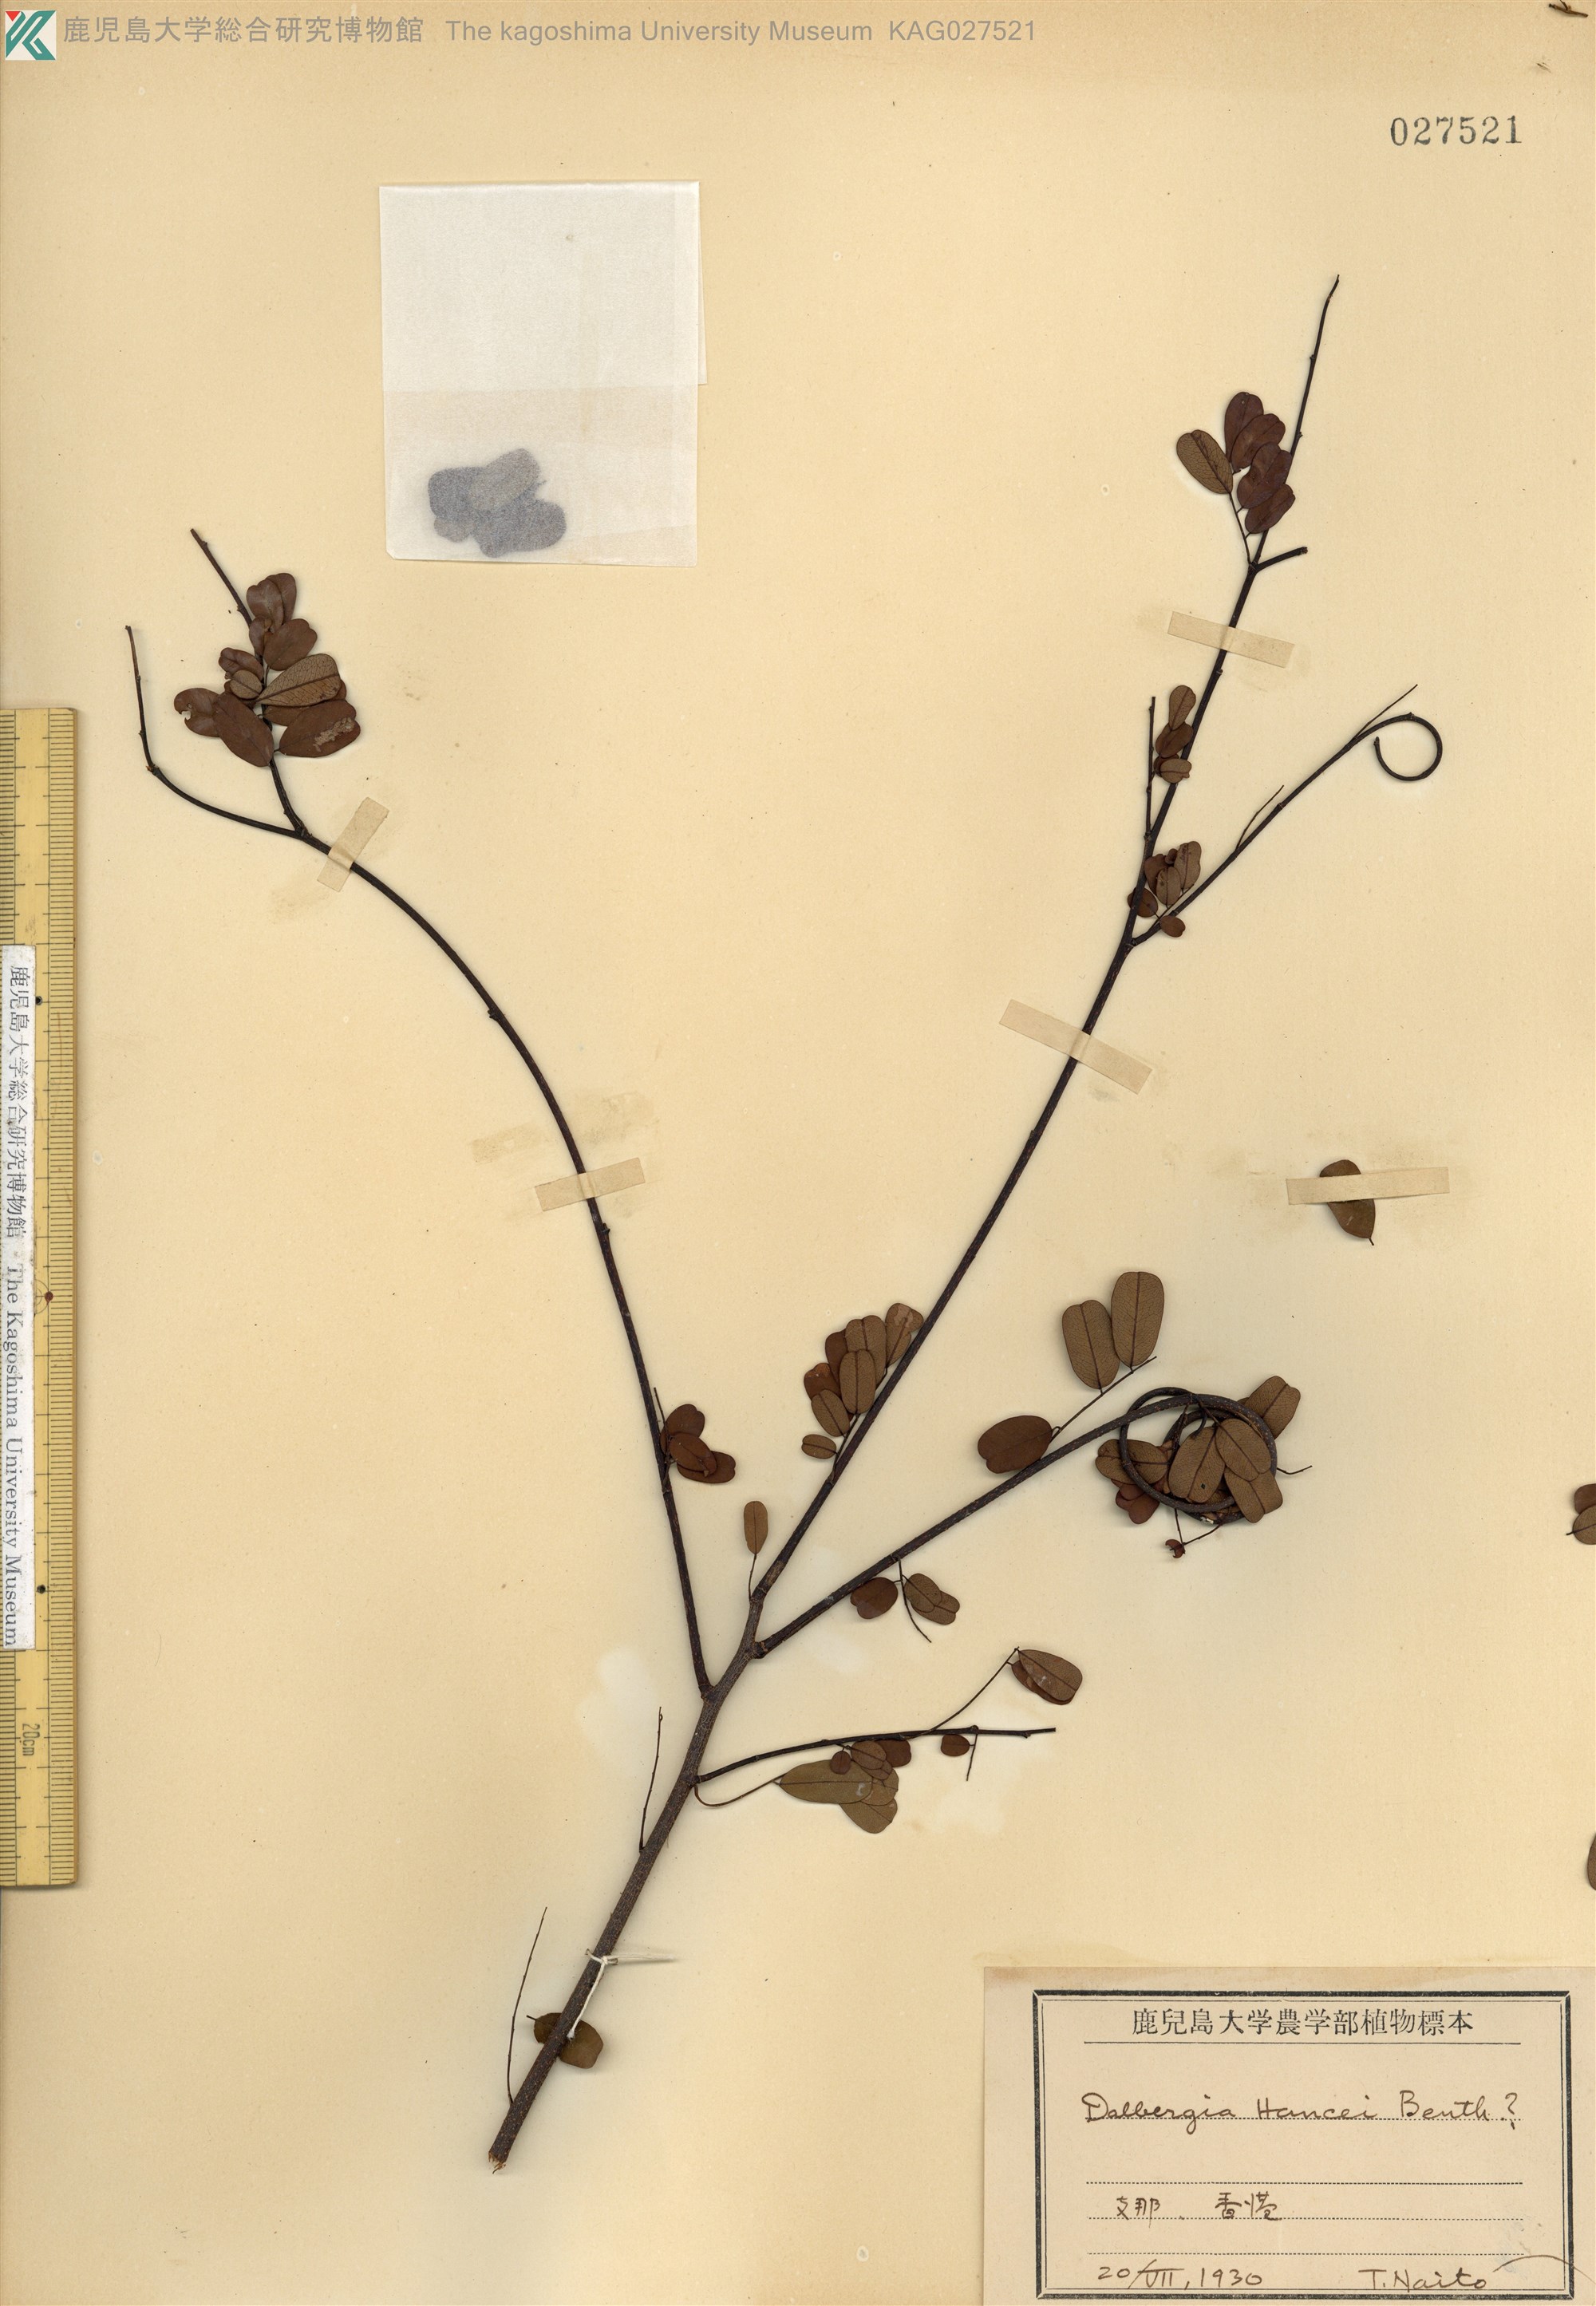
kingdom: Plantae
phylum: Tracheophyta
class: Magnoliopsida
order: Fabales
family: Fabaceae
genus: Dalbergia
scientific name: Dalbergia hancei
